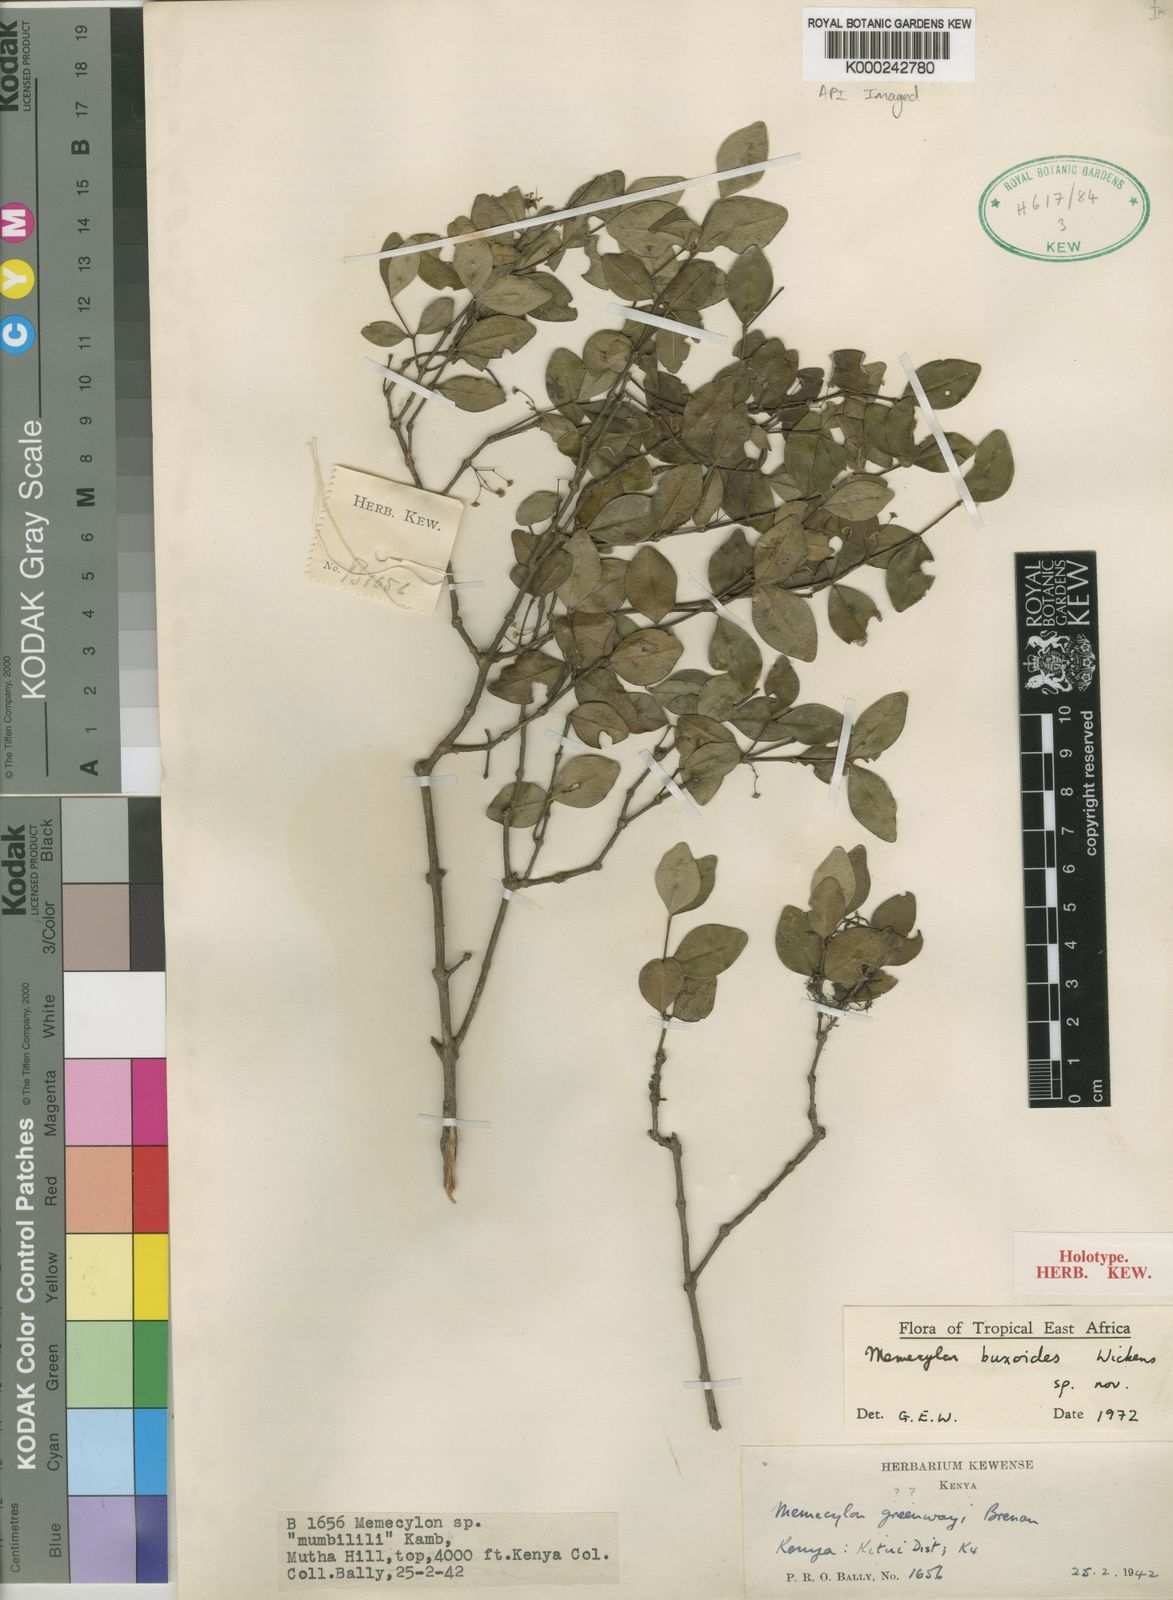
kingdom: Plantae
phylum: Tracheophyta
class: Magnoliopsida
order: Myrtales
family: Melastomataceae
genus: Memecylon
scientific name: Memecylon buxoides
